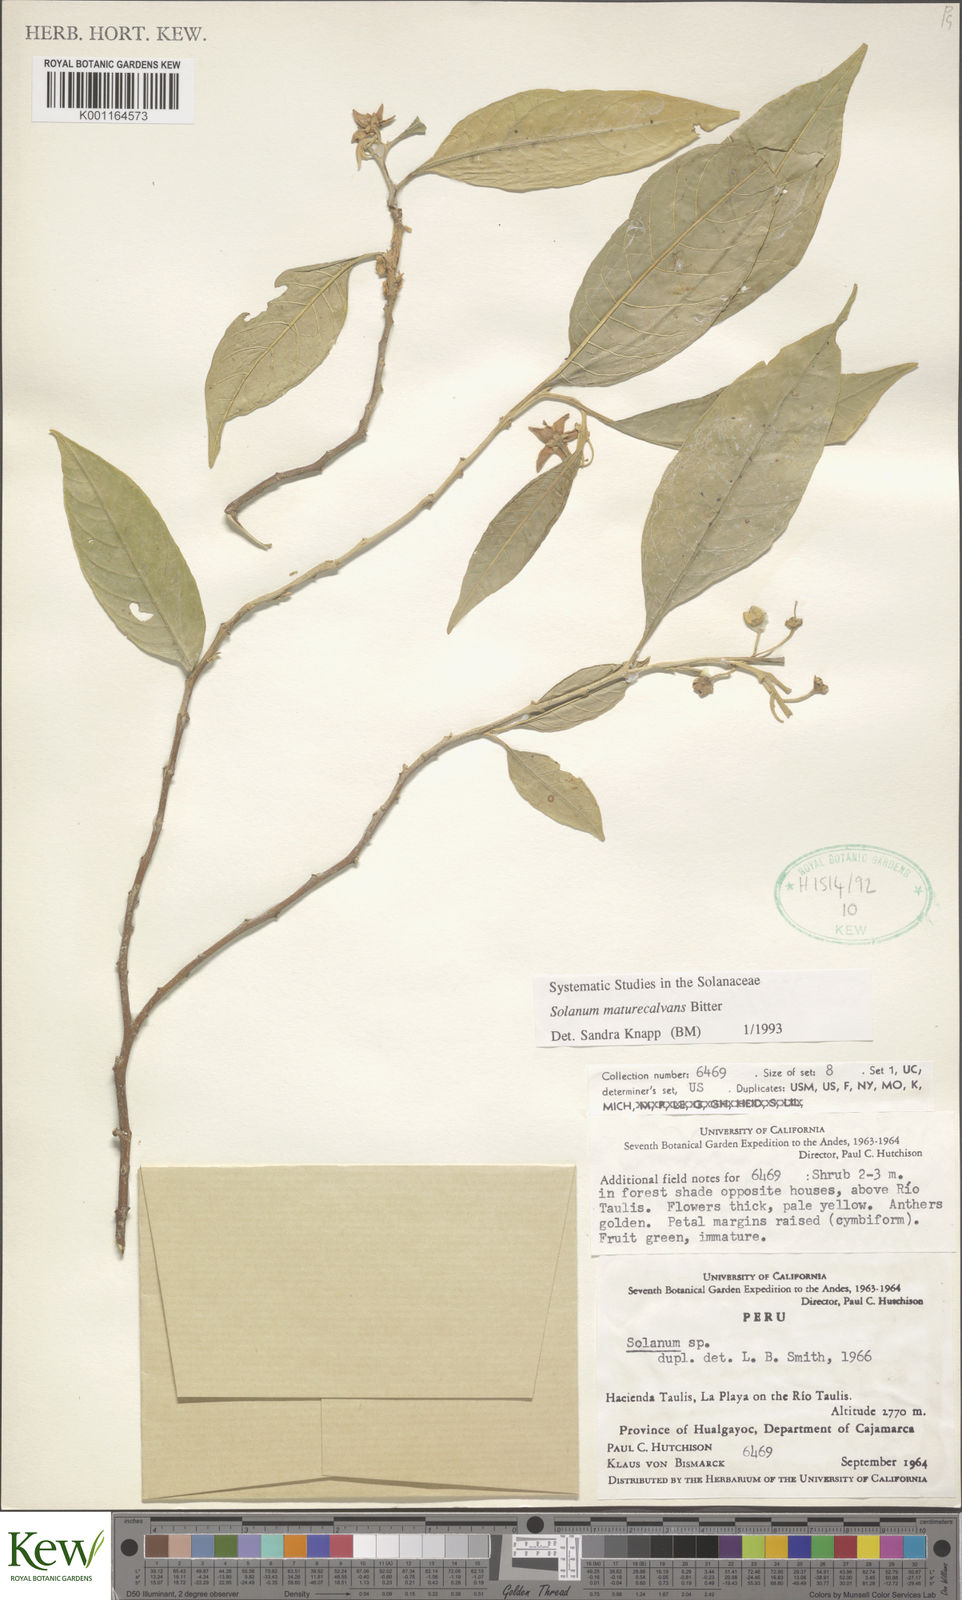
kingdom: Plantae
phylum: Tracheophyta
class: Magnoliopsida
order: Solanales
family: Solanaceae
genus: Solanum
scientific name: Solanum maturecalvans
